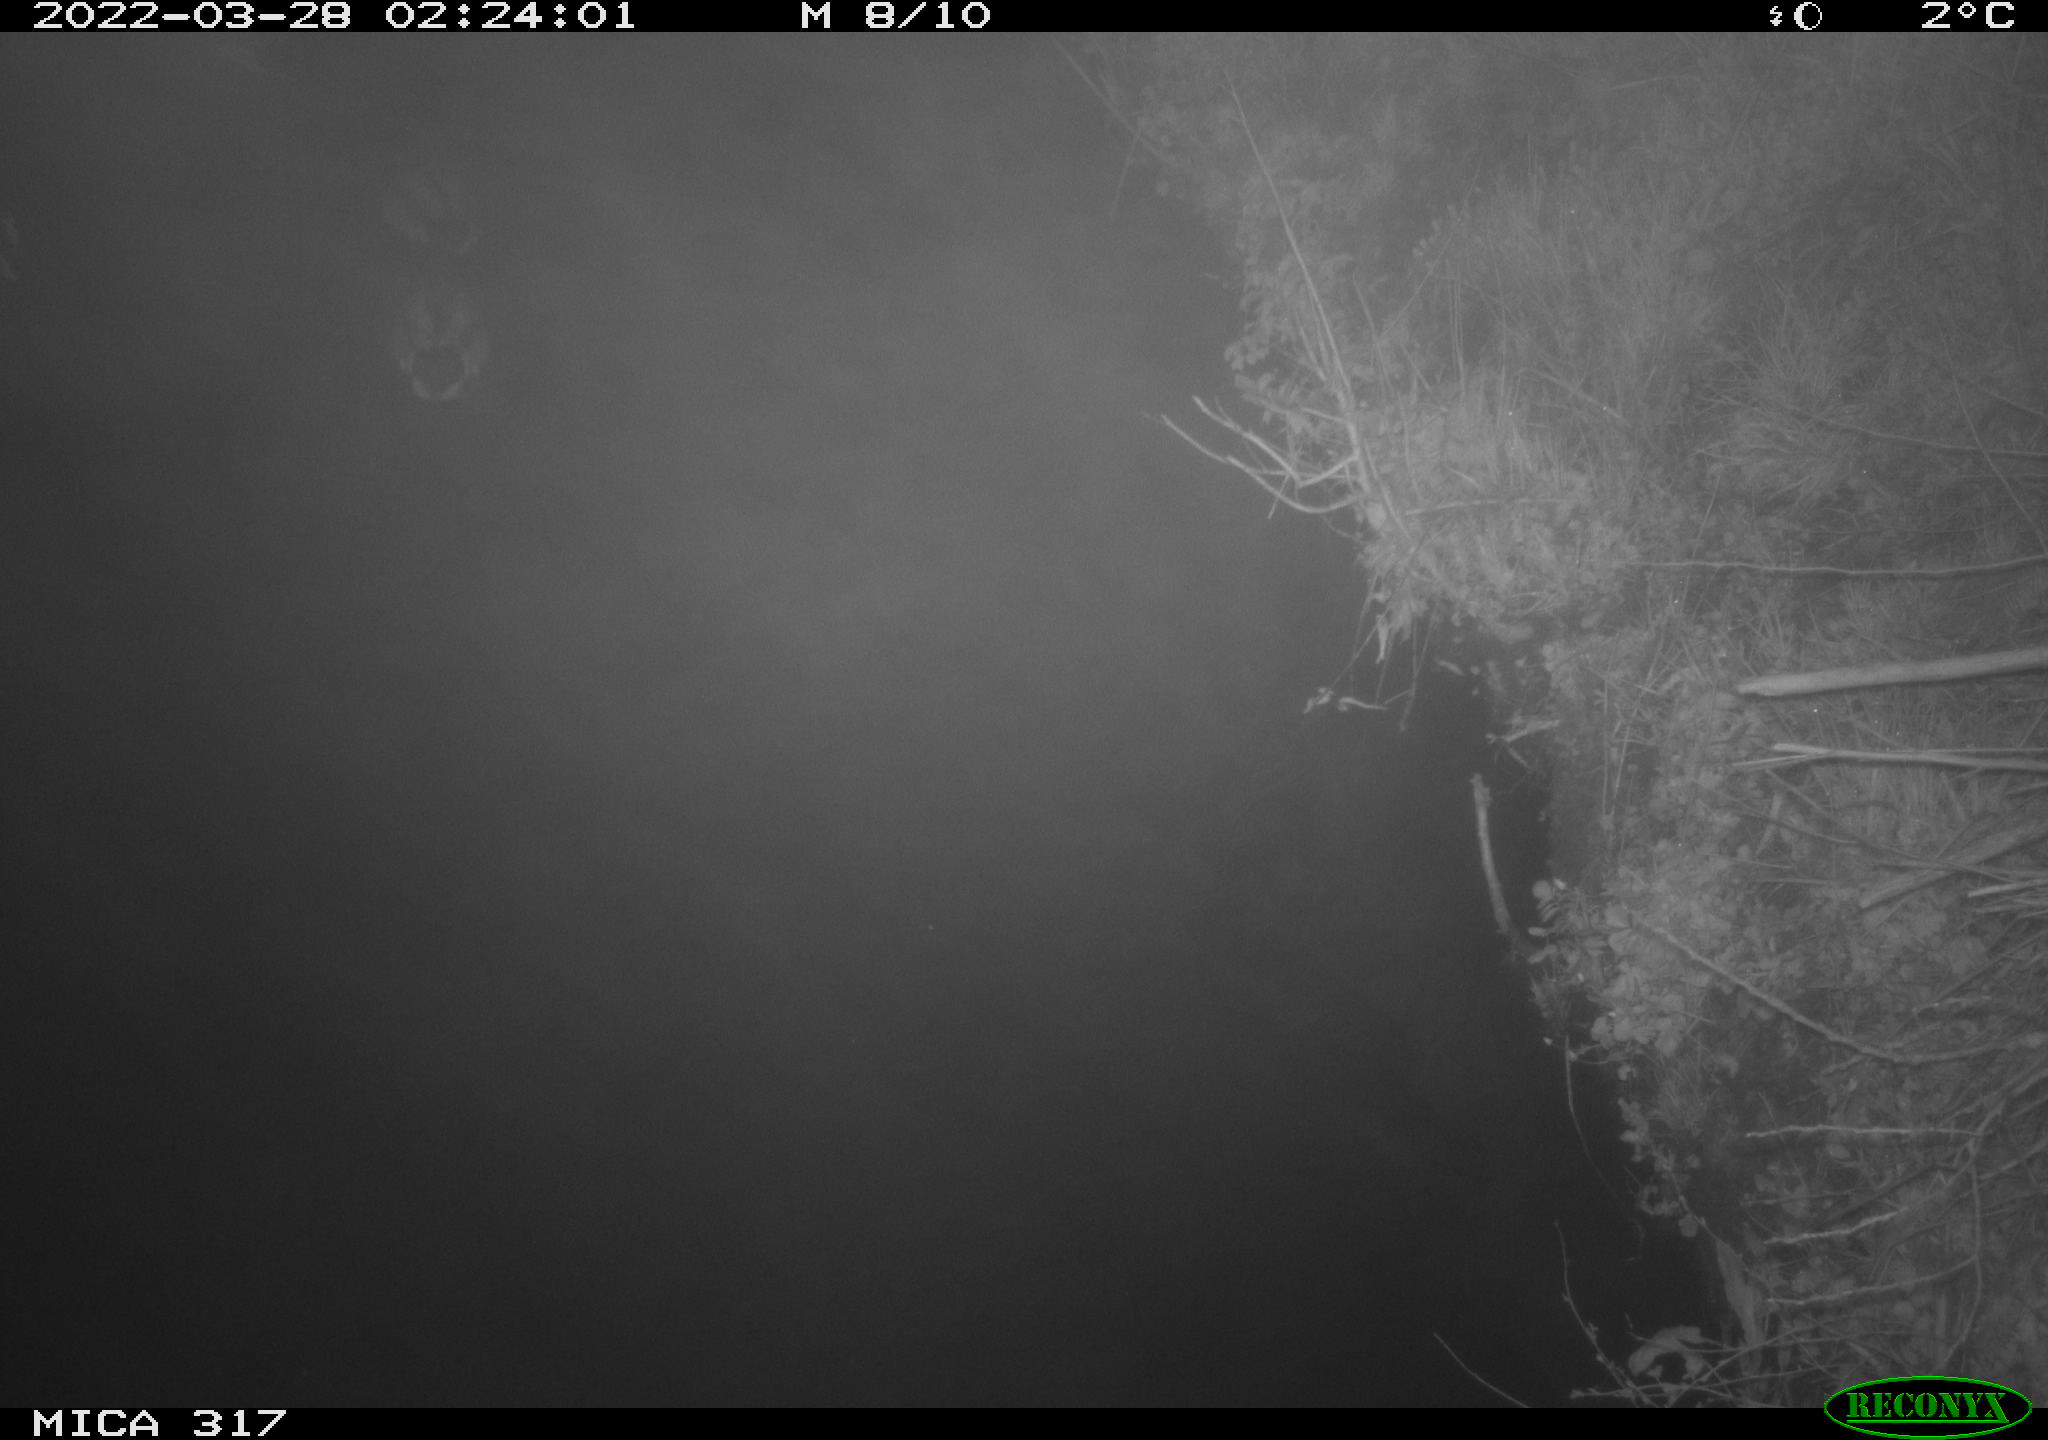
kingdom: Animalia
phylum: Chordata
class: Aves
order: Anseriformes
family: Anatidae
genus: Anas
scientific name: Anas platyrhynchos
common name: Mallard
